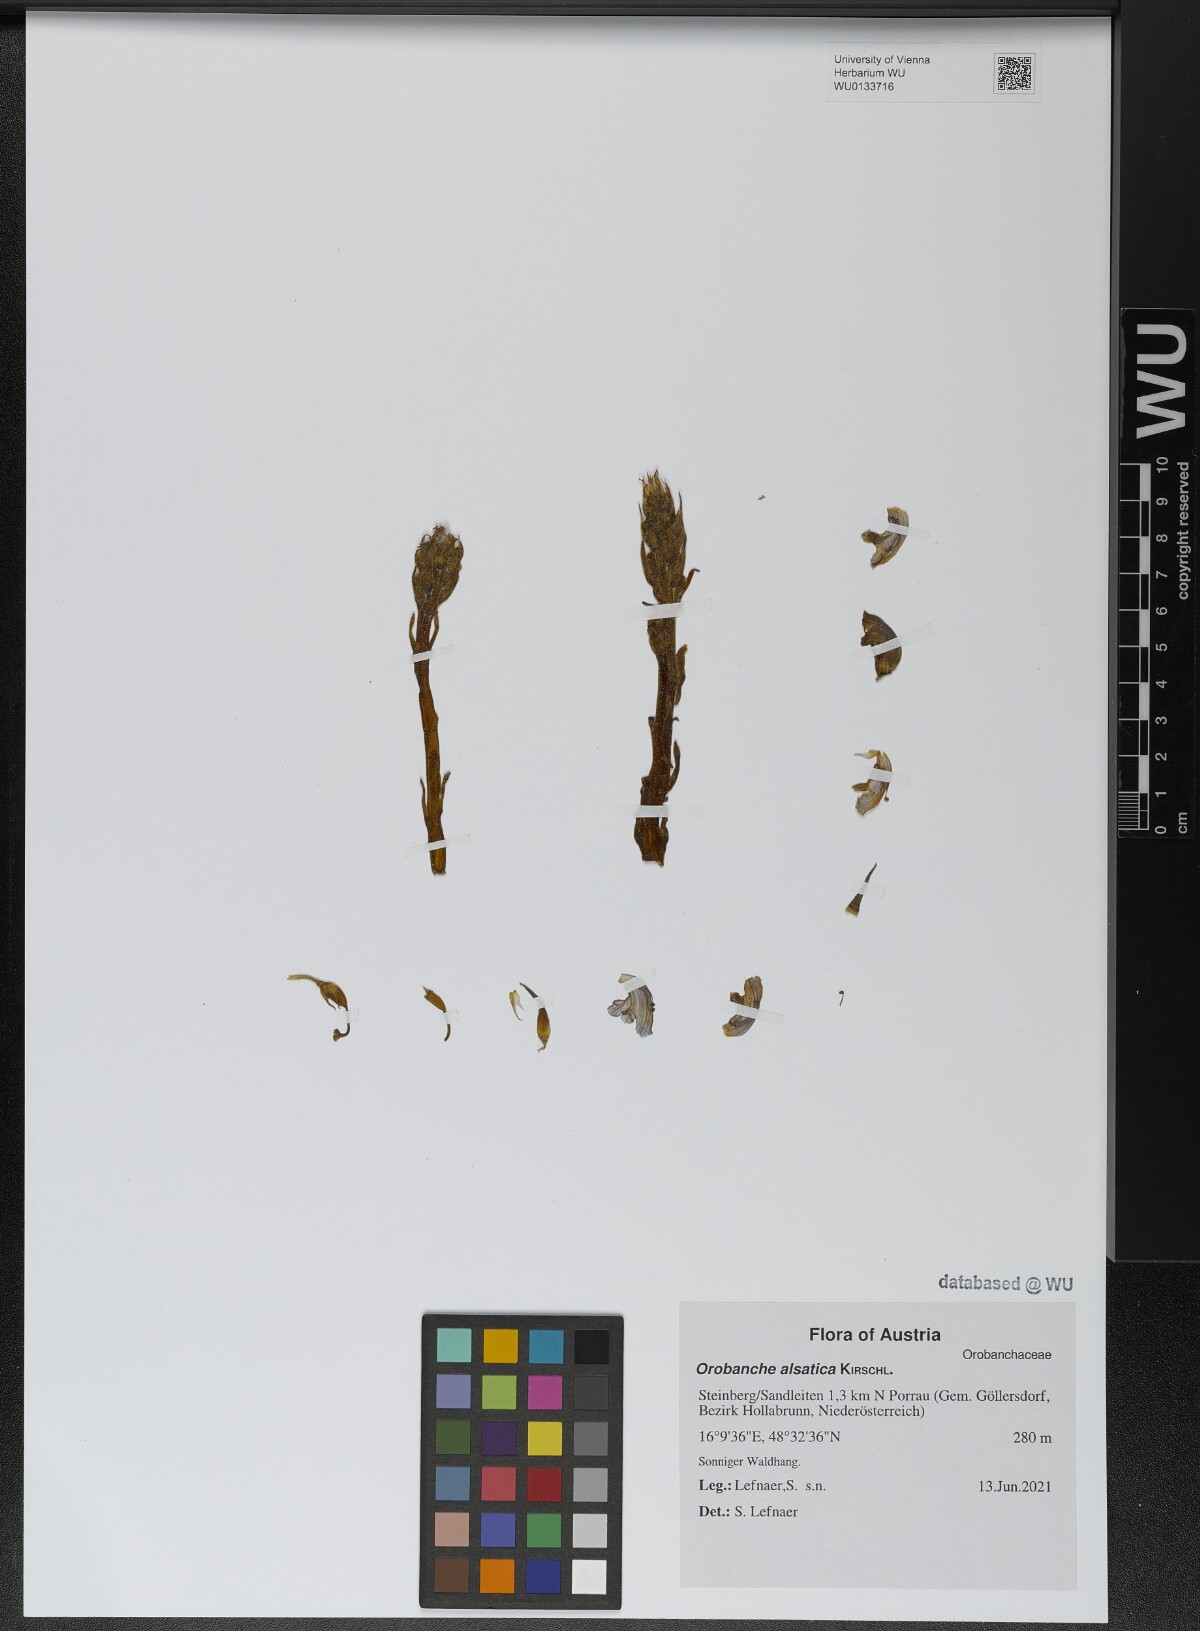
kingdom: Plantae
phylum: Tracheophyta
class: Magnoliopsida
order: Lamiales
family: Orobanchaceae
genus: Orobanche
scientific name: Orobanche alsatica
